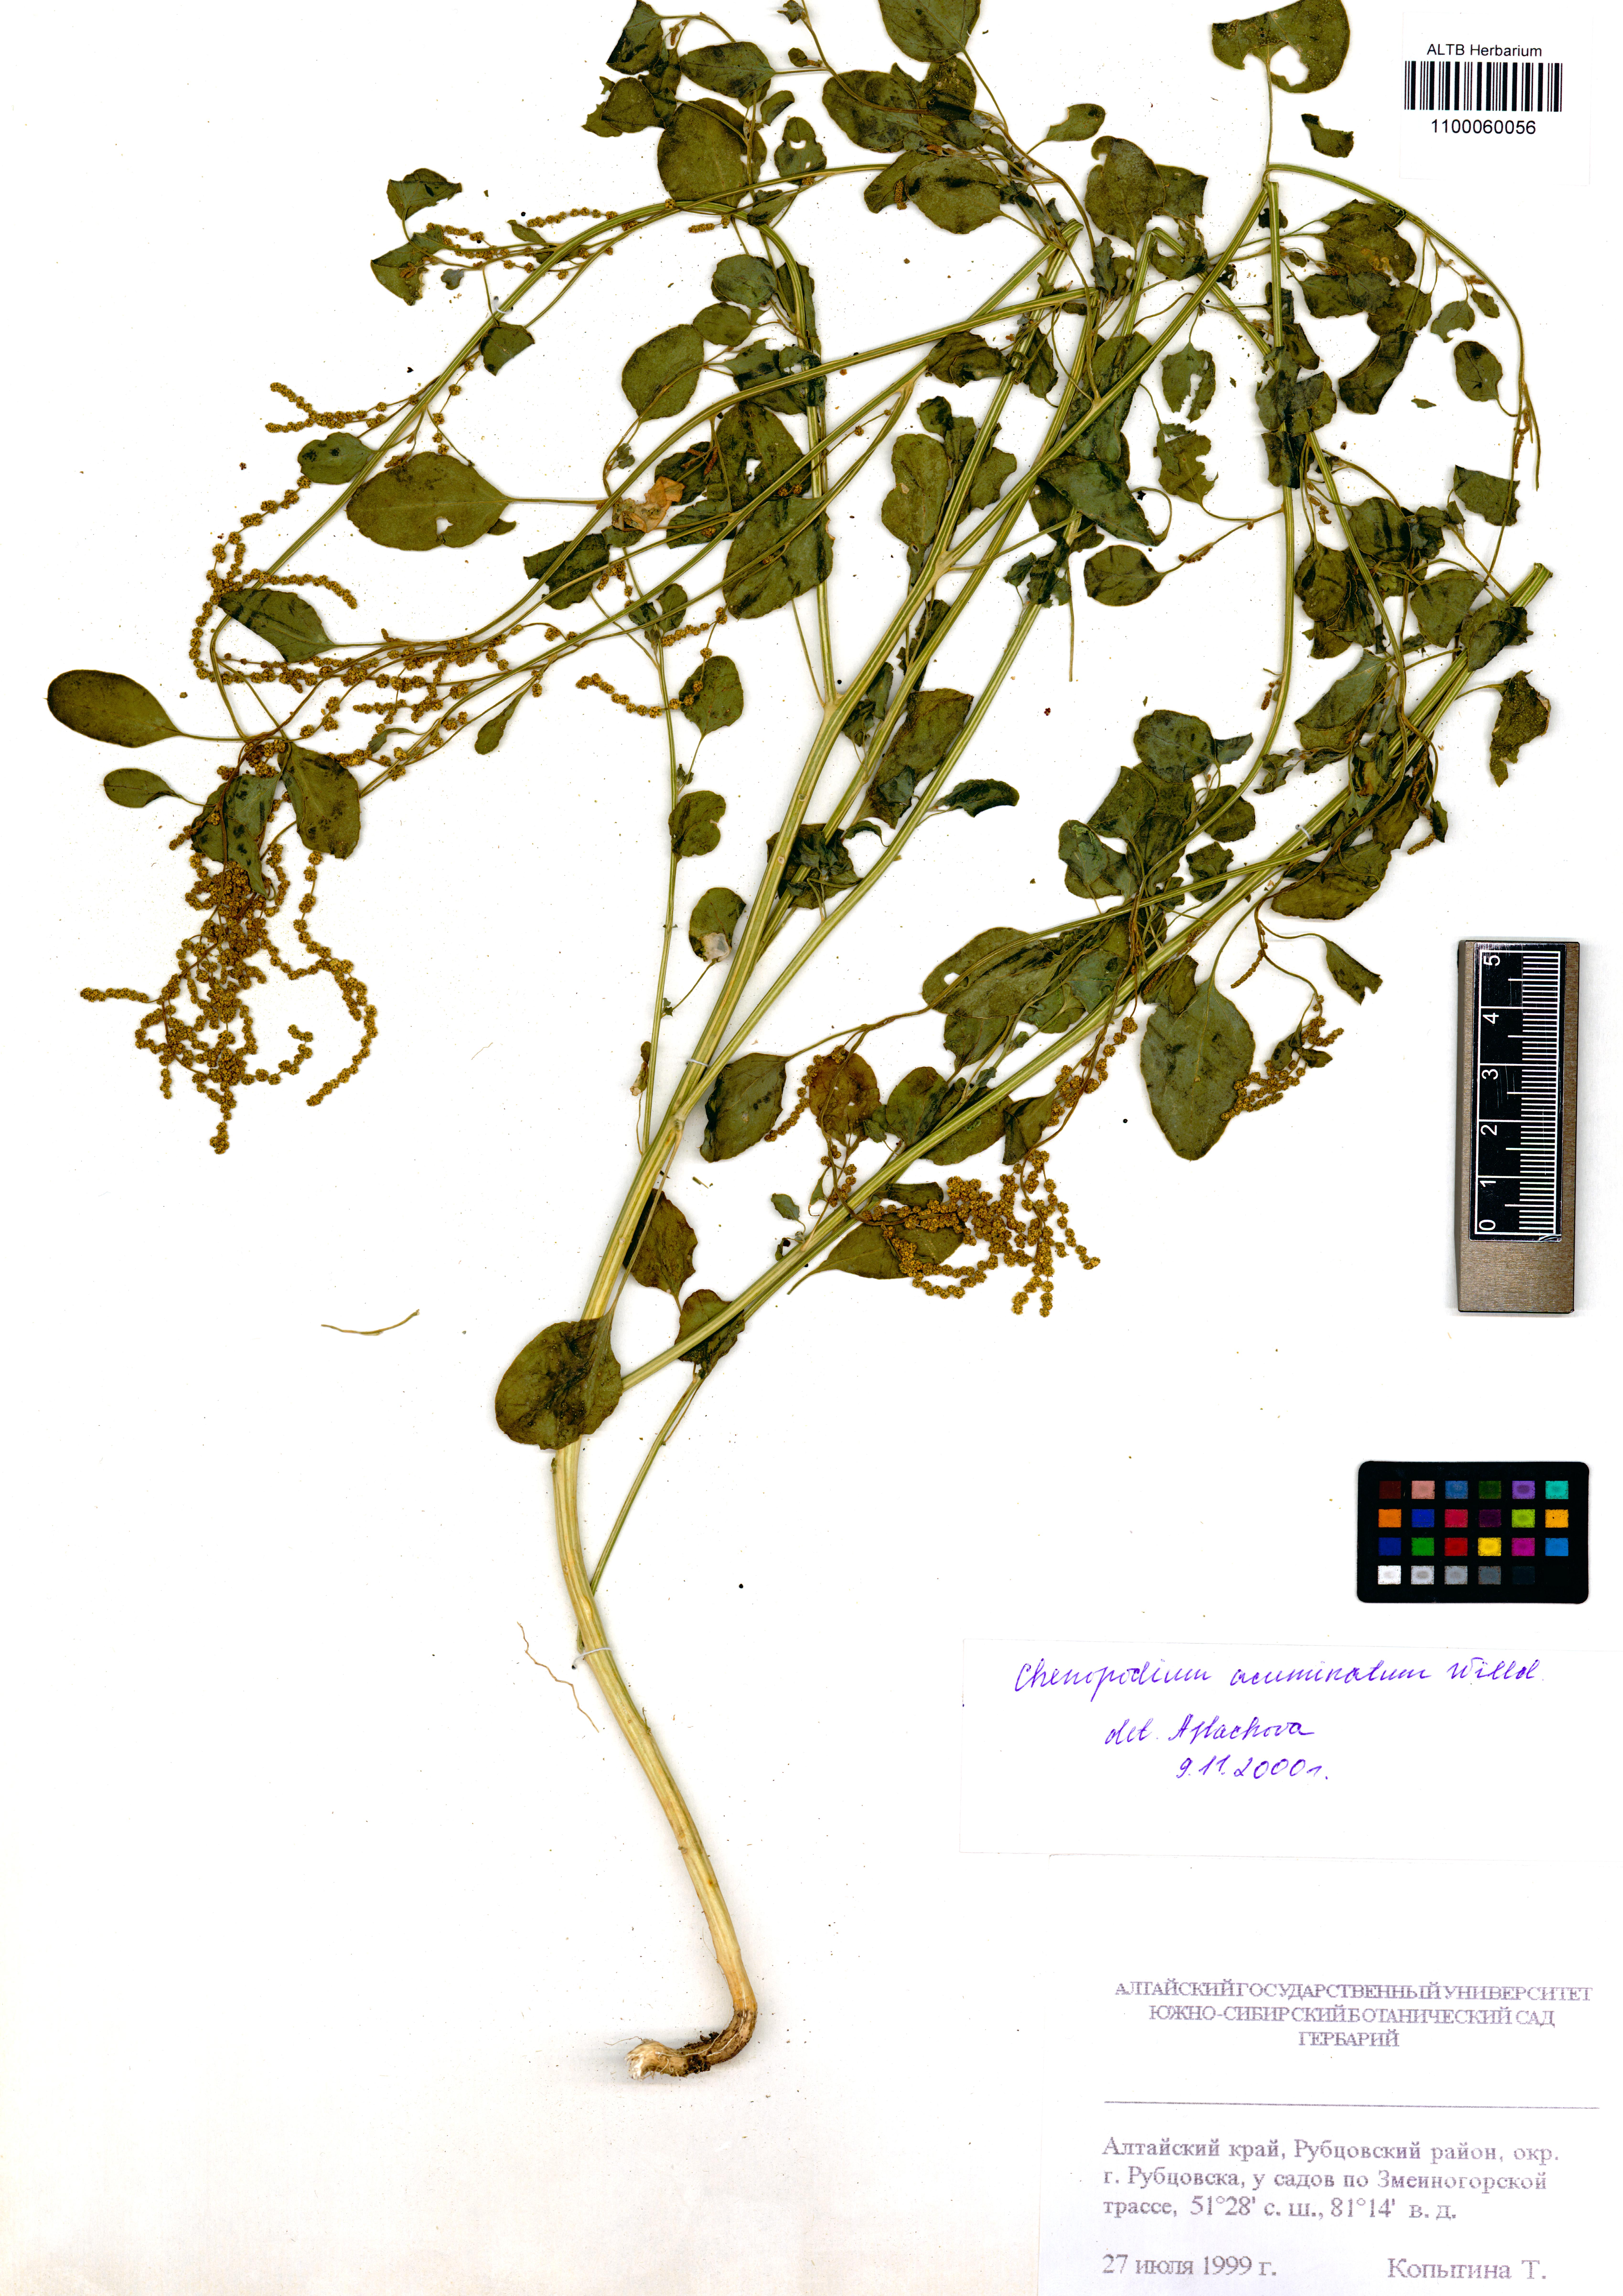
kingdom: Plantae
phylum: Tracheophyta
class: Magnoliopsida
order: Caryophyllales
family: Amaranthaceae
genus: Chenopodium
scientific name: Chenopodium acuminatum
